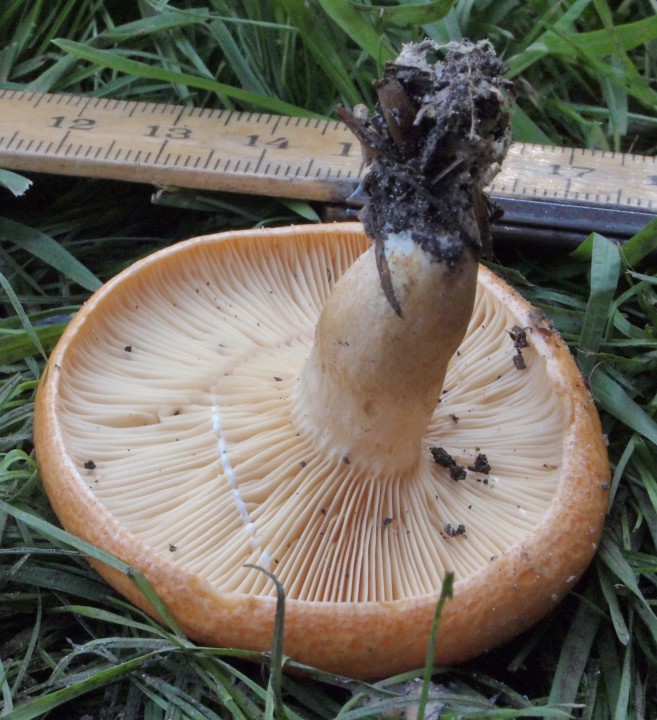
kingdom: Fungi
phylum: Basidiomycota
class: Agaricomycetes
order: Russulales
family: Russulaceae
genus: Lactarius
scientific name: Lactarius porninsis
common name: lærke-mælkehat
